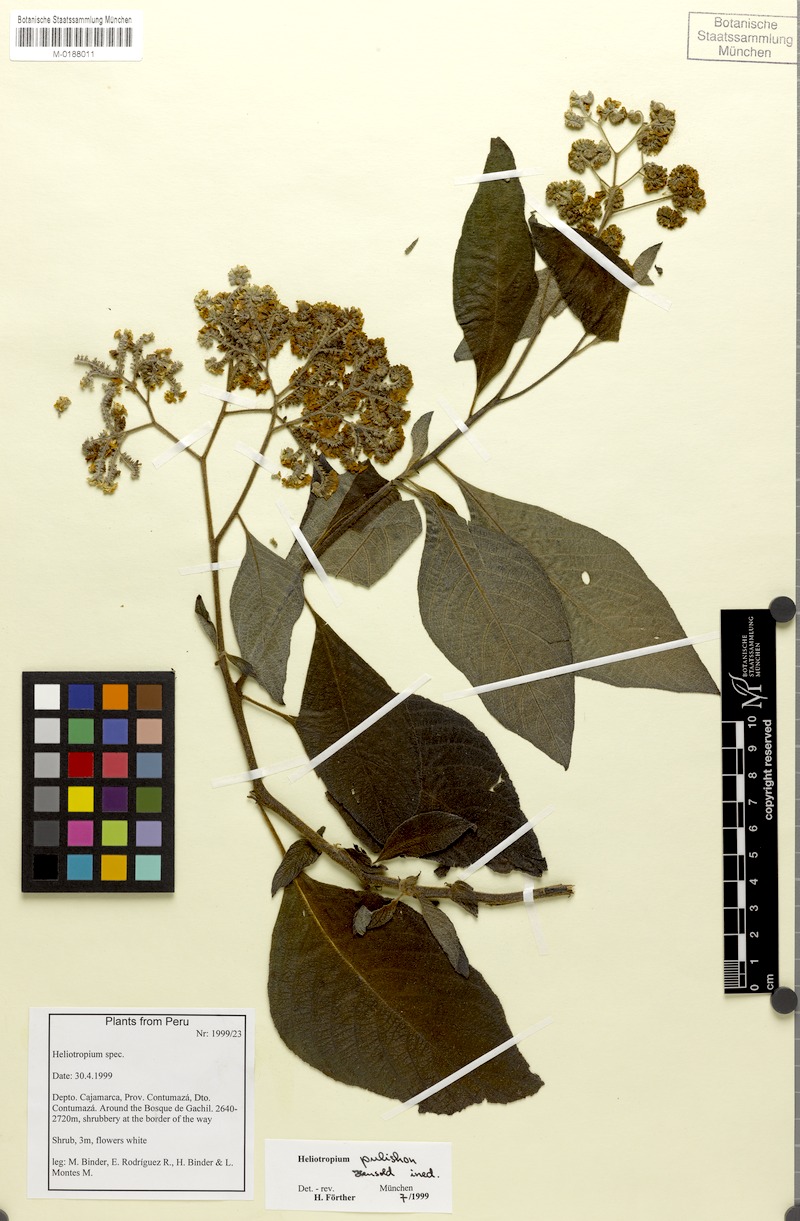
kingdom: Plantae
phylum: Tracheophyta
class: Magnoliopsida
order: Boraginales
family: Heliotropiaceae
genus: Heliotropium
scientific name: Heliotropium
